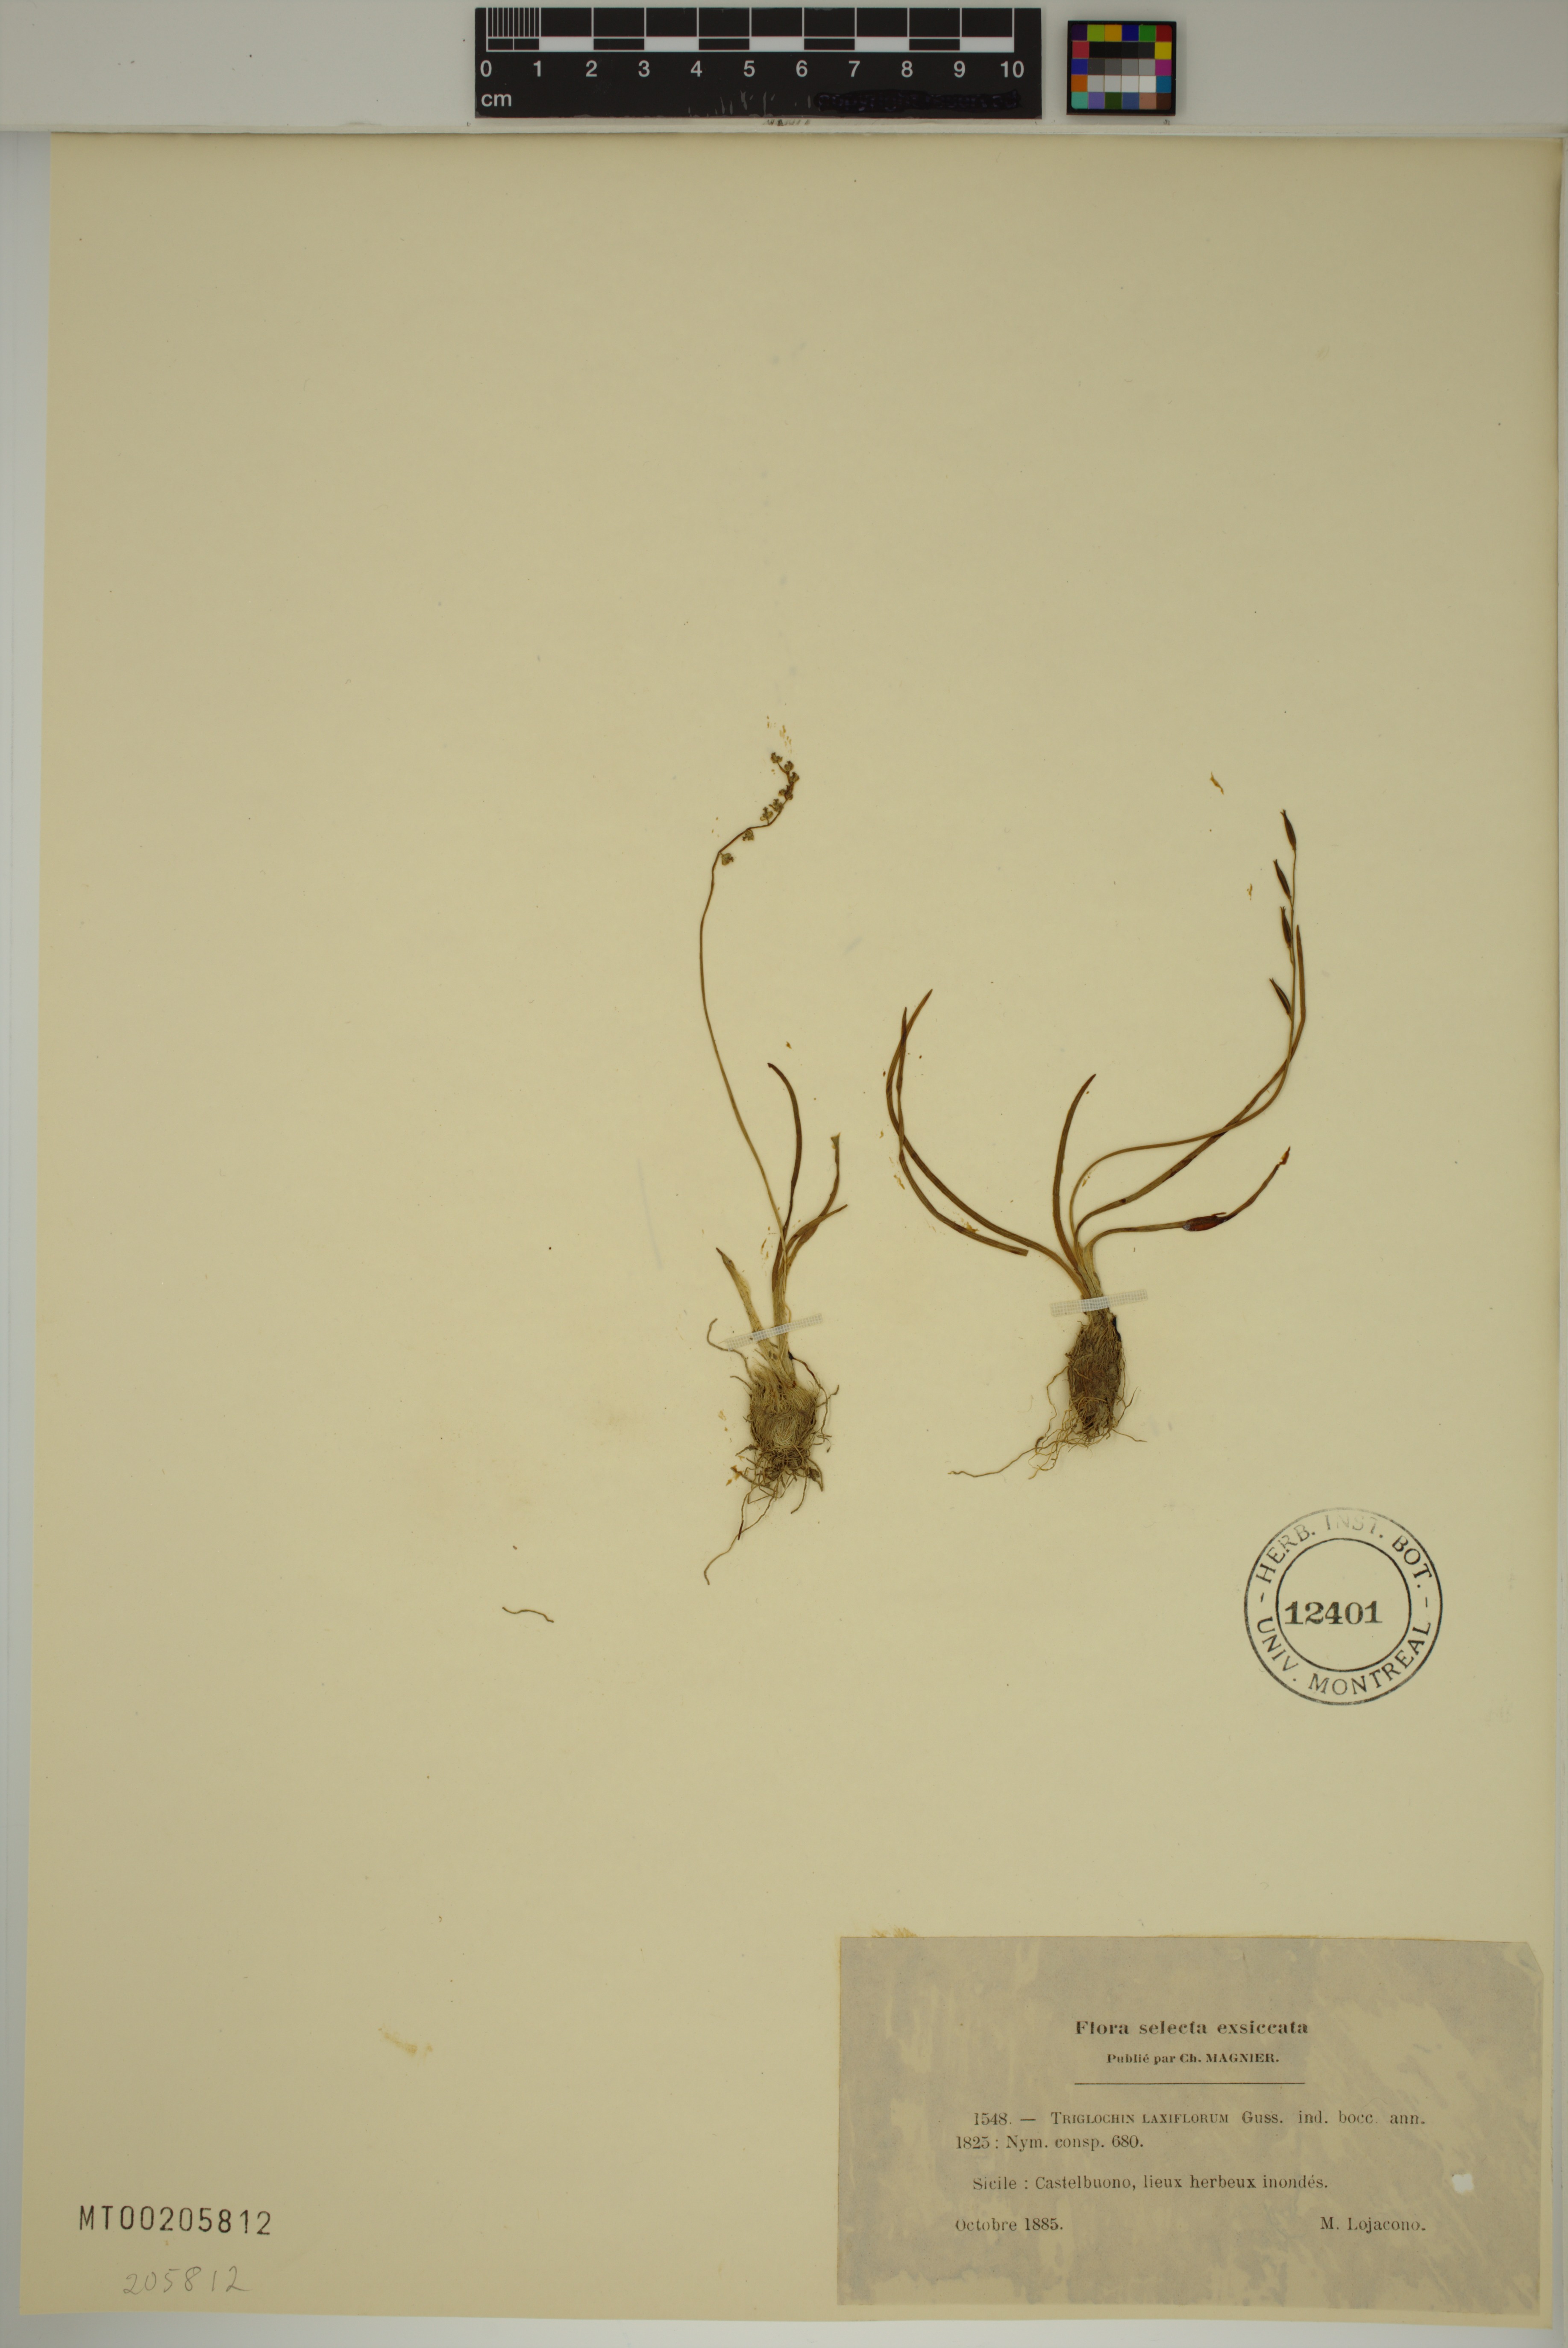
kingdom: Plantae
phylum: Tracheophyta
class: Liliopsida
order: Alismatales
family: Juncaginaceae
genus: Triglochin
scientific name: Triglochin laxiflora
